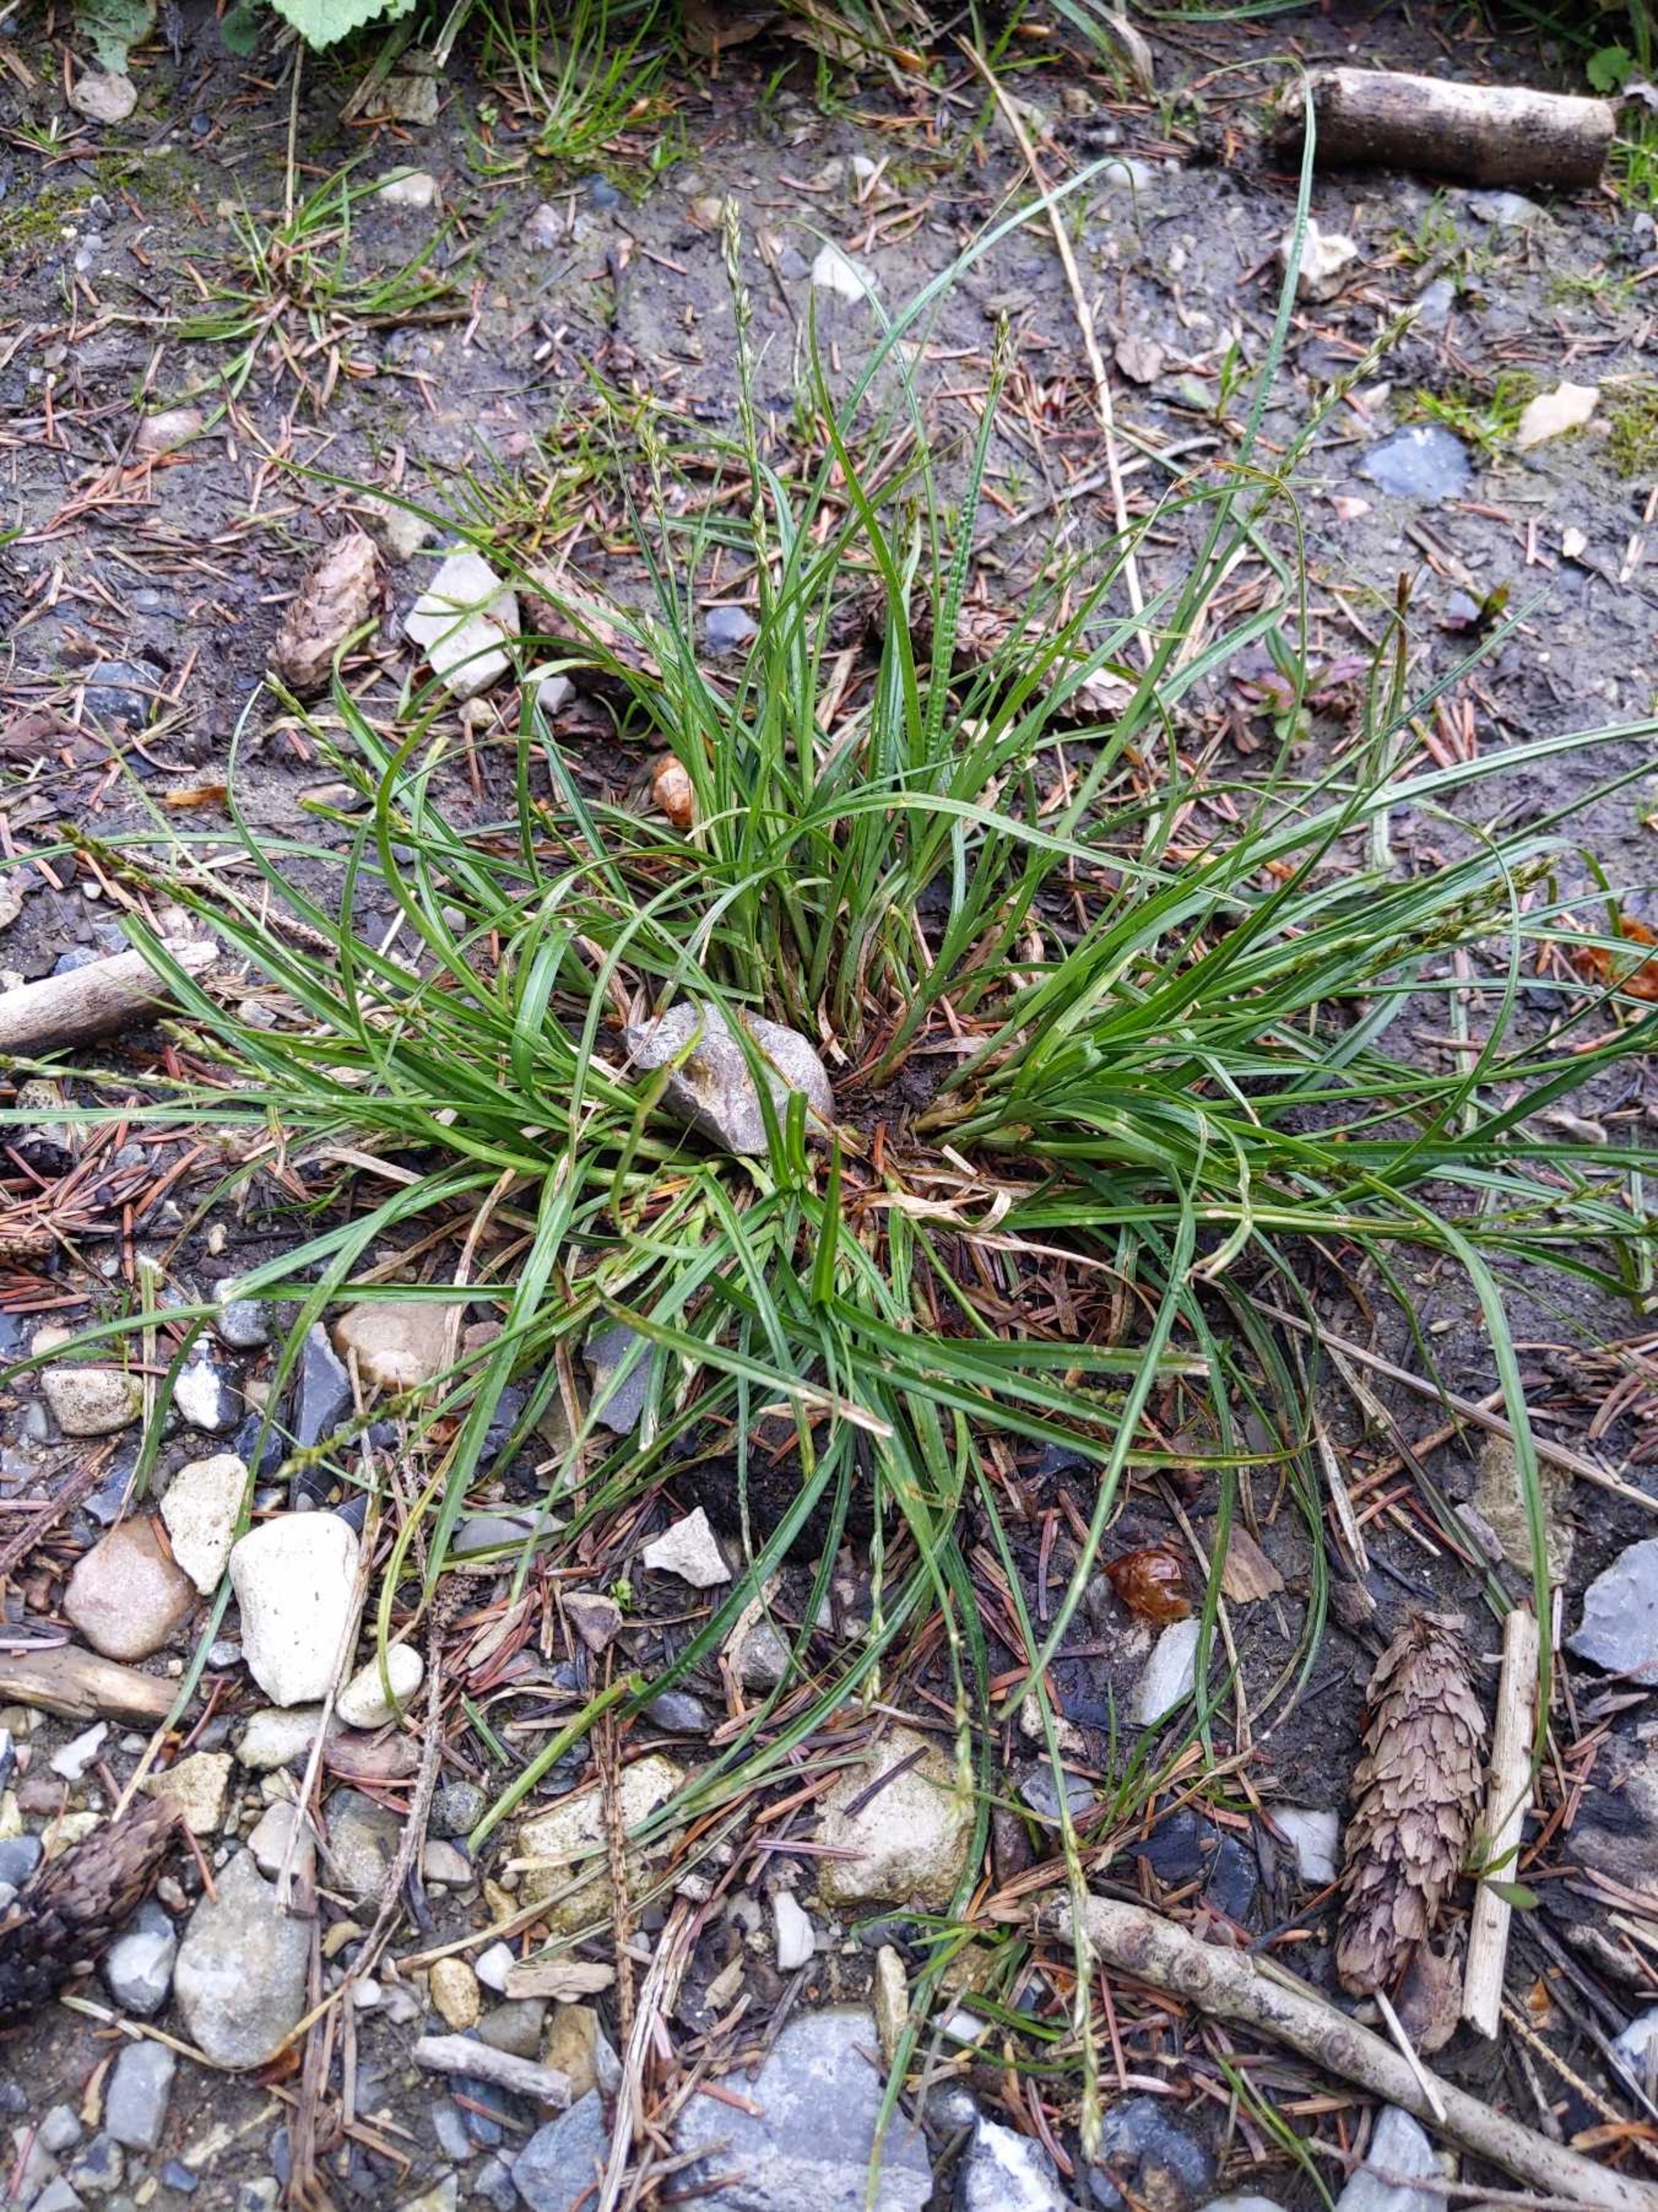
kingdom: Plantae
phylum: Tracheophyta
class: Liliopsida
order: Poales
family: Cyperaceae
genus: Carex
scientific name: Carex
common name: Starslægten
